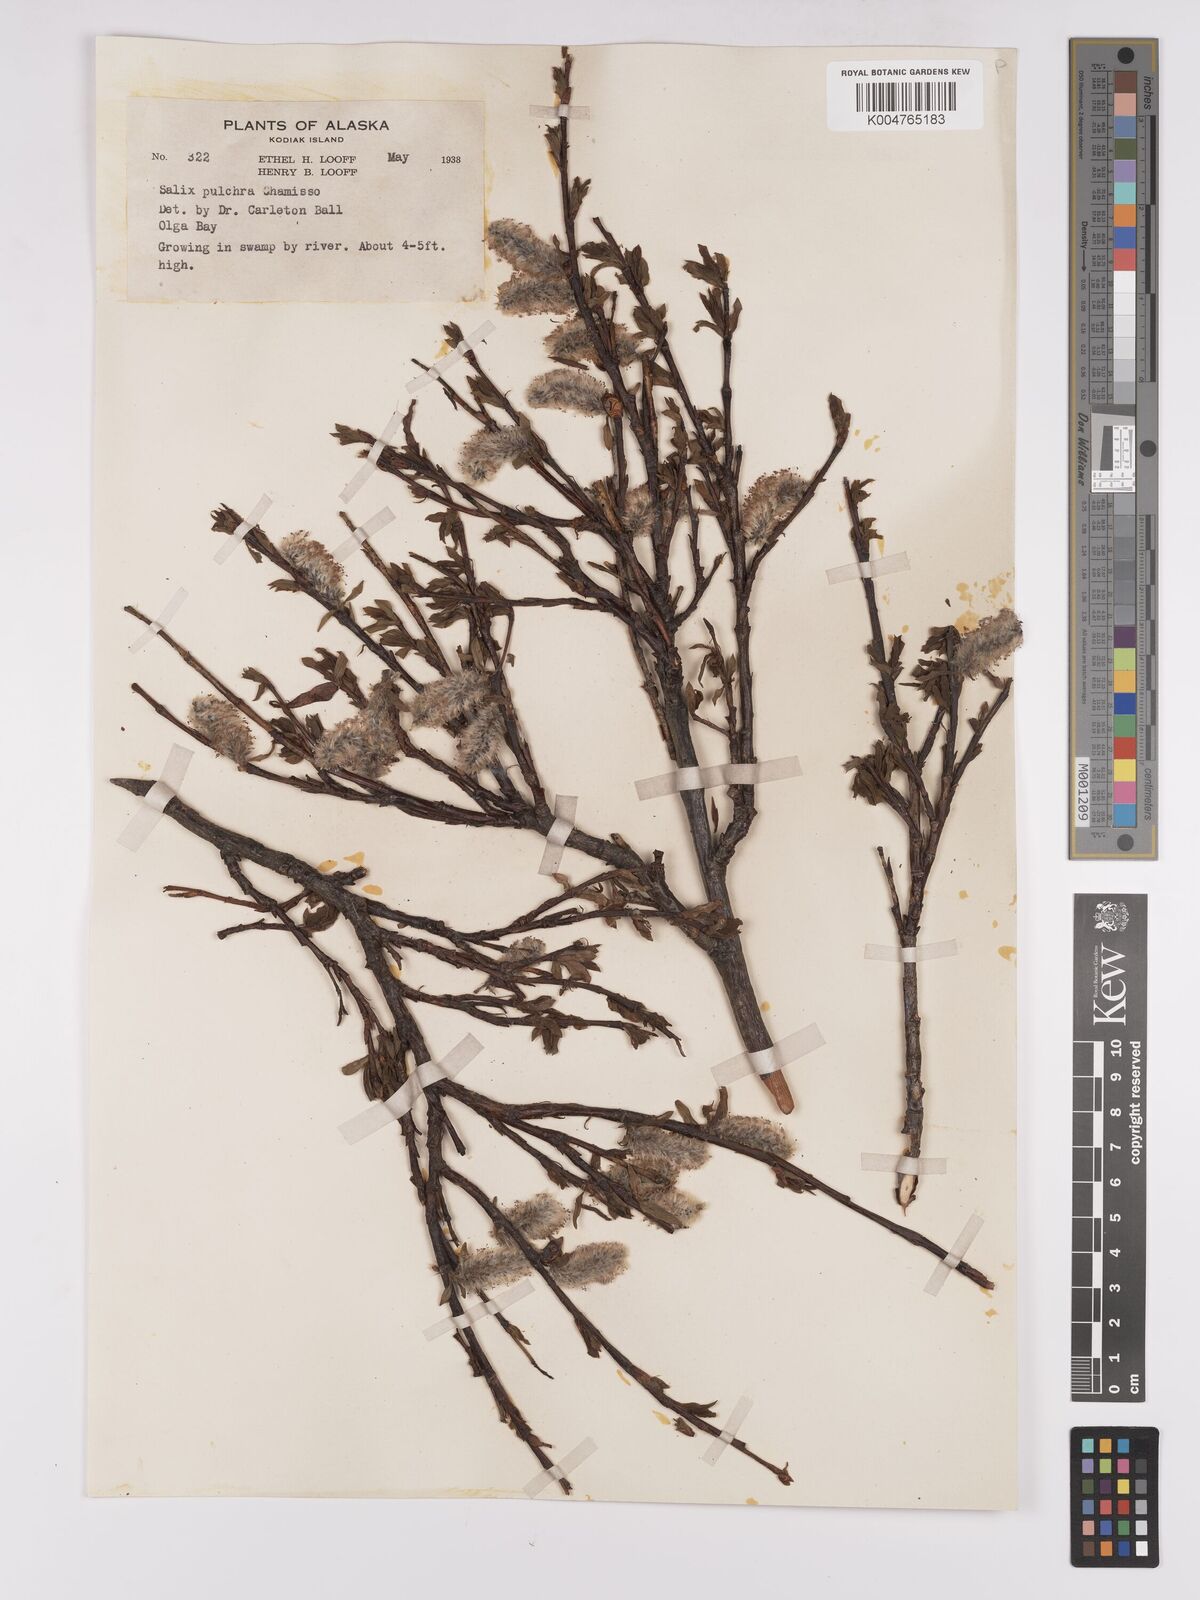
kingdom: Plantae
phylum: Tracheophyta
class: Magnoliopsida
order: Malpighiales
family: Salicaceae
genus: Salix
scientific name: Salix
